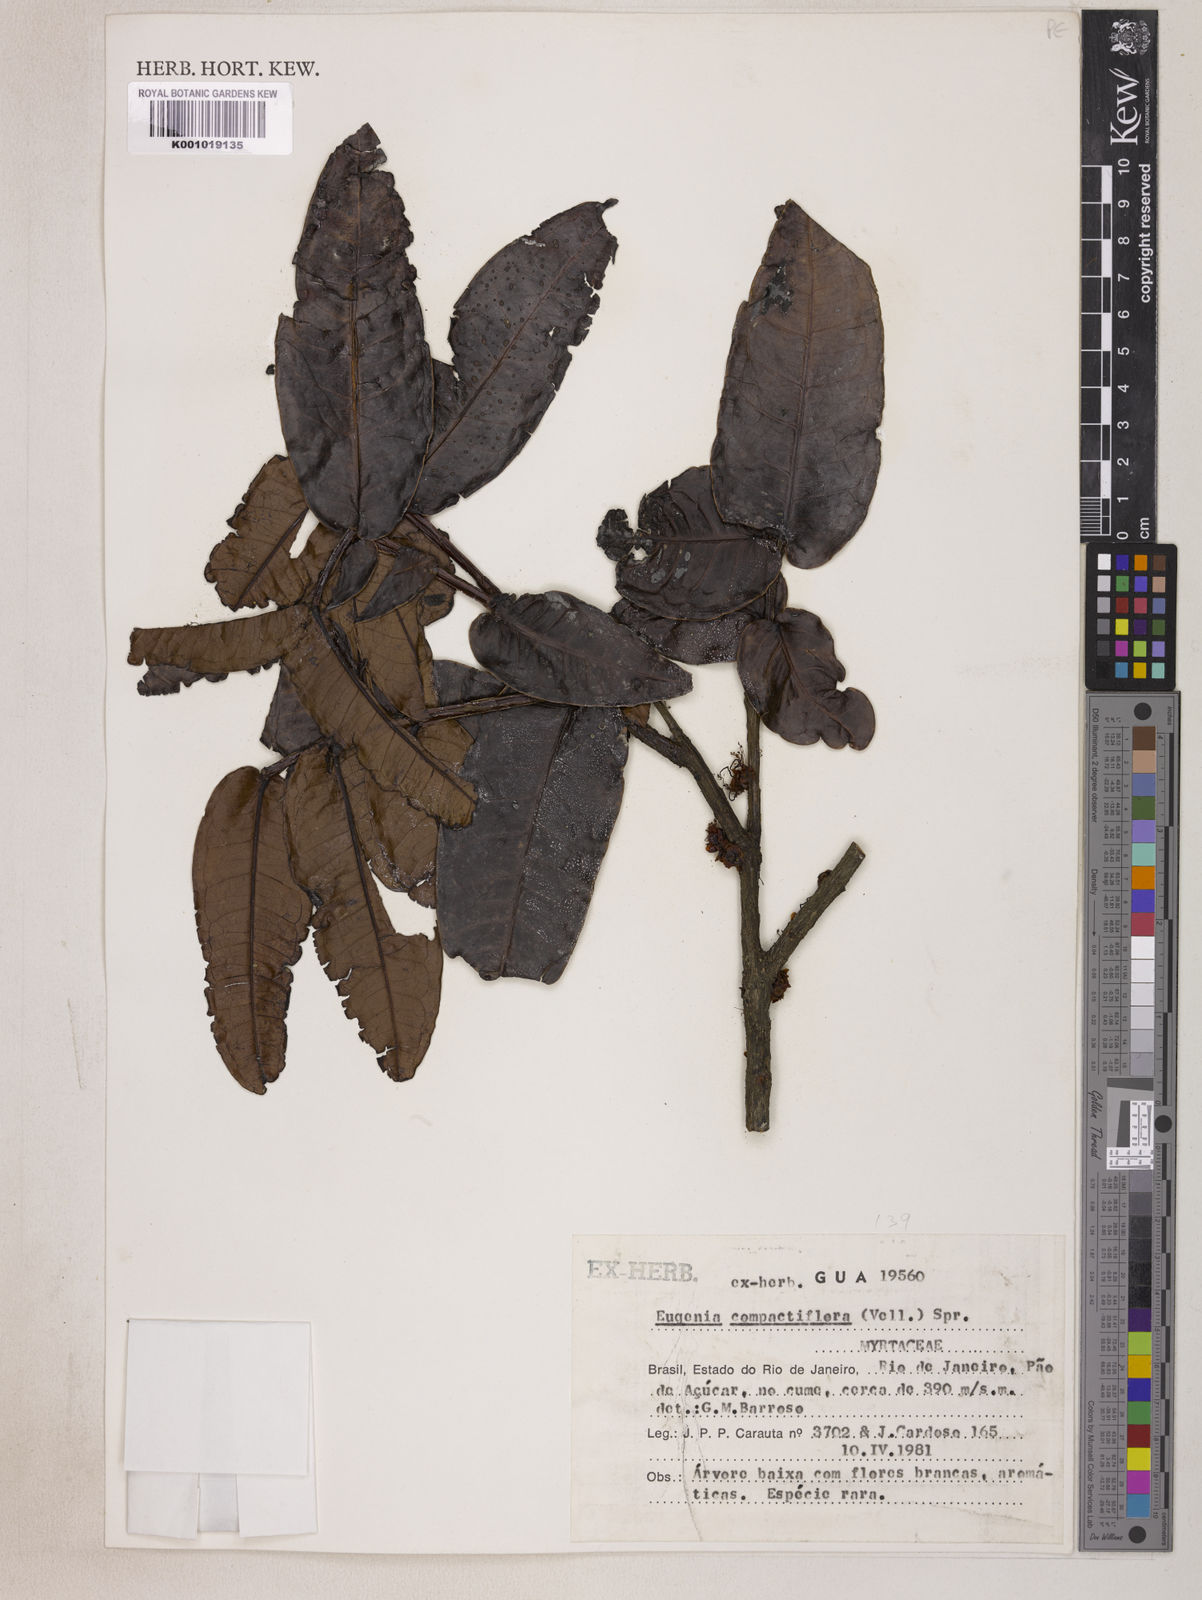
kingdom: Plantae
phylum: Tracheophyta
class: Magnoliopsida
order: Myrtales
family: Myrtaceae
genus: Eugenia
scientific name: Eugenia monosperma
